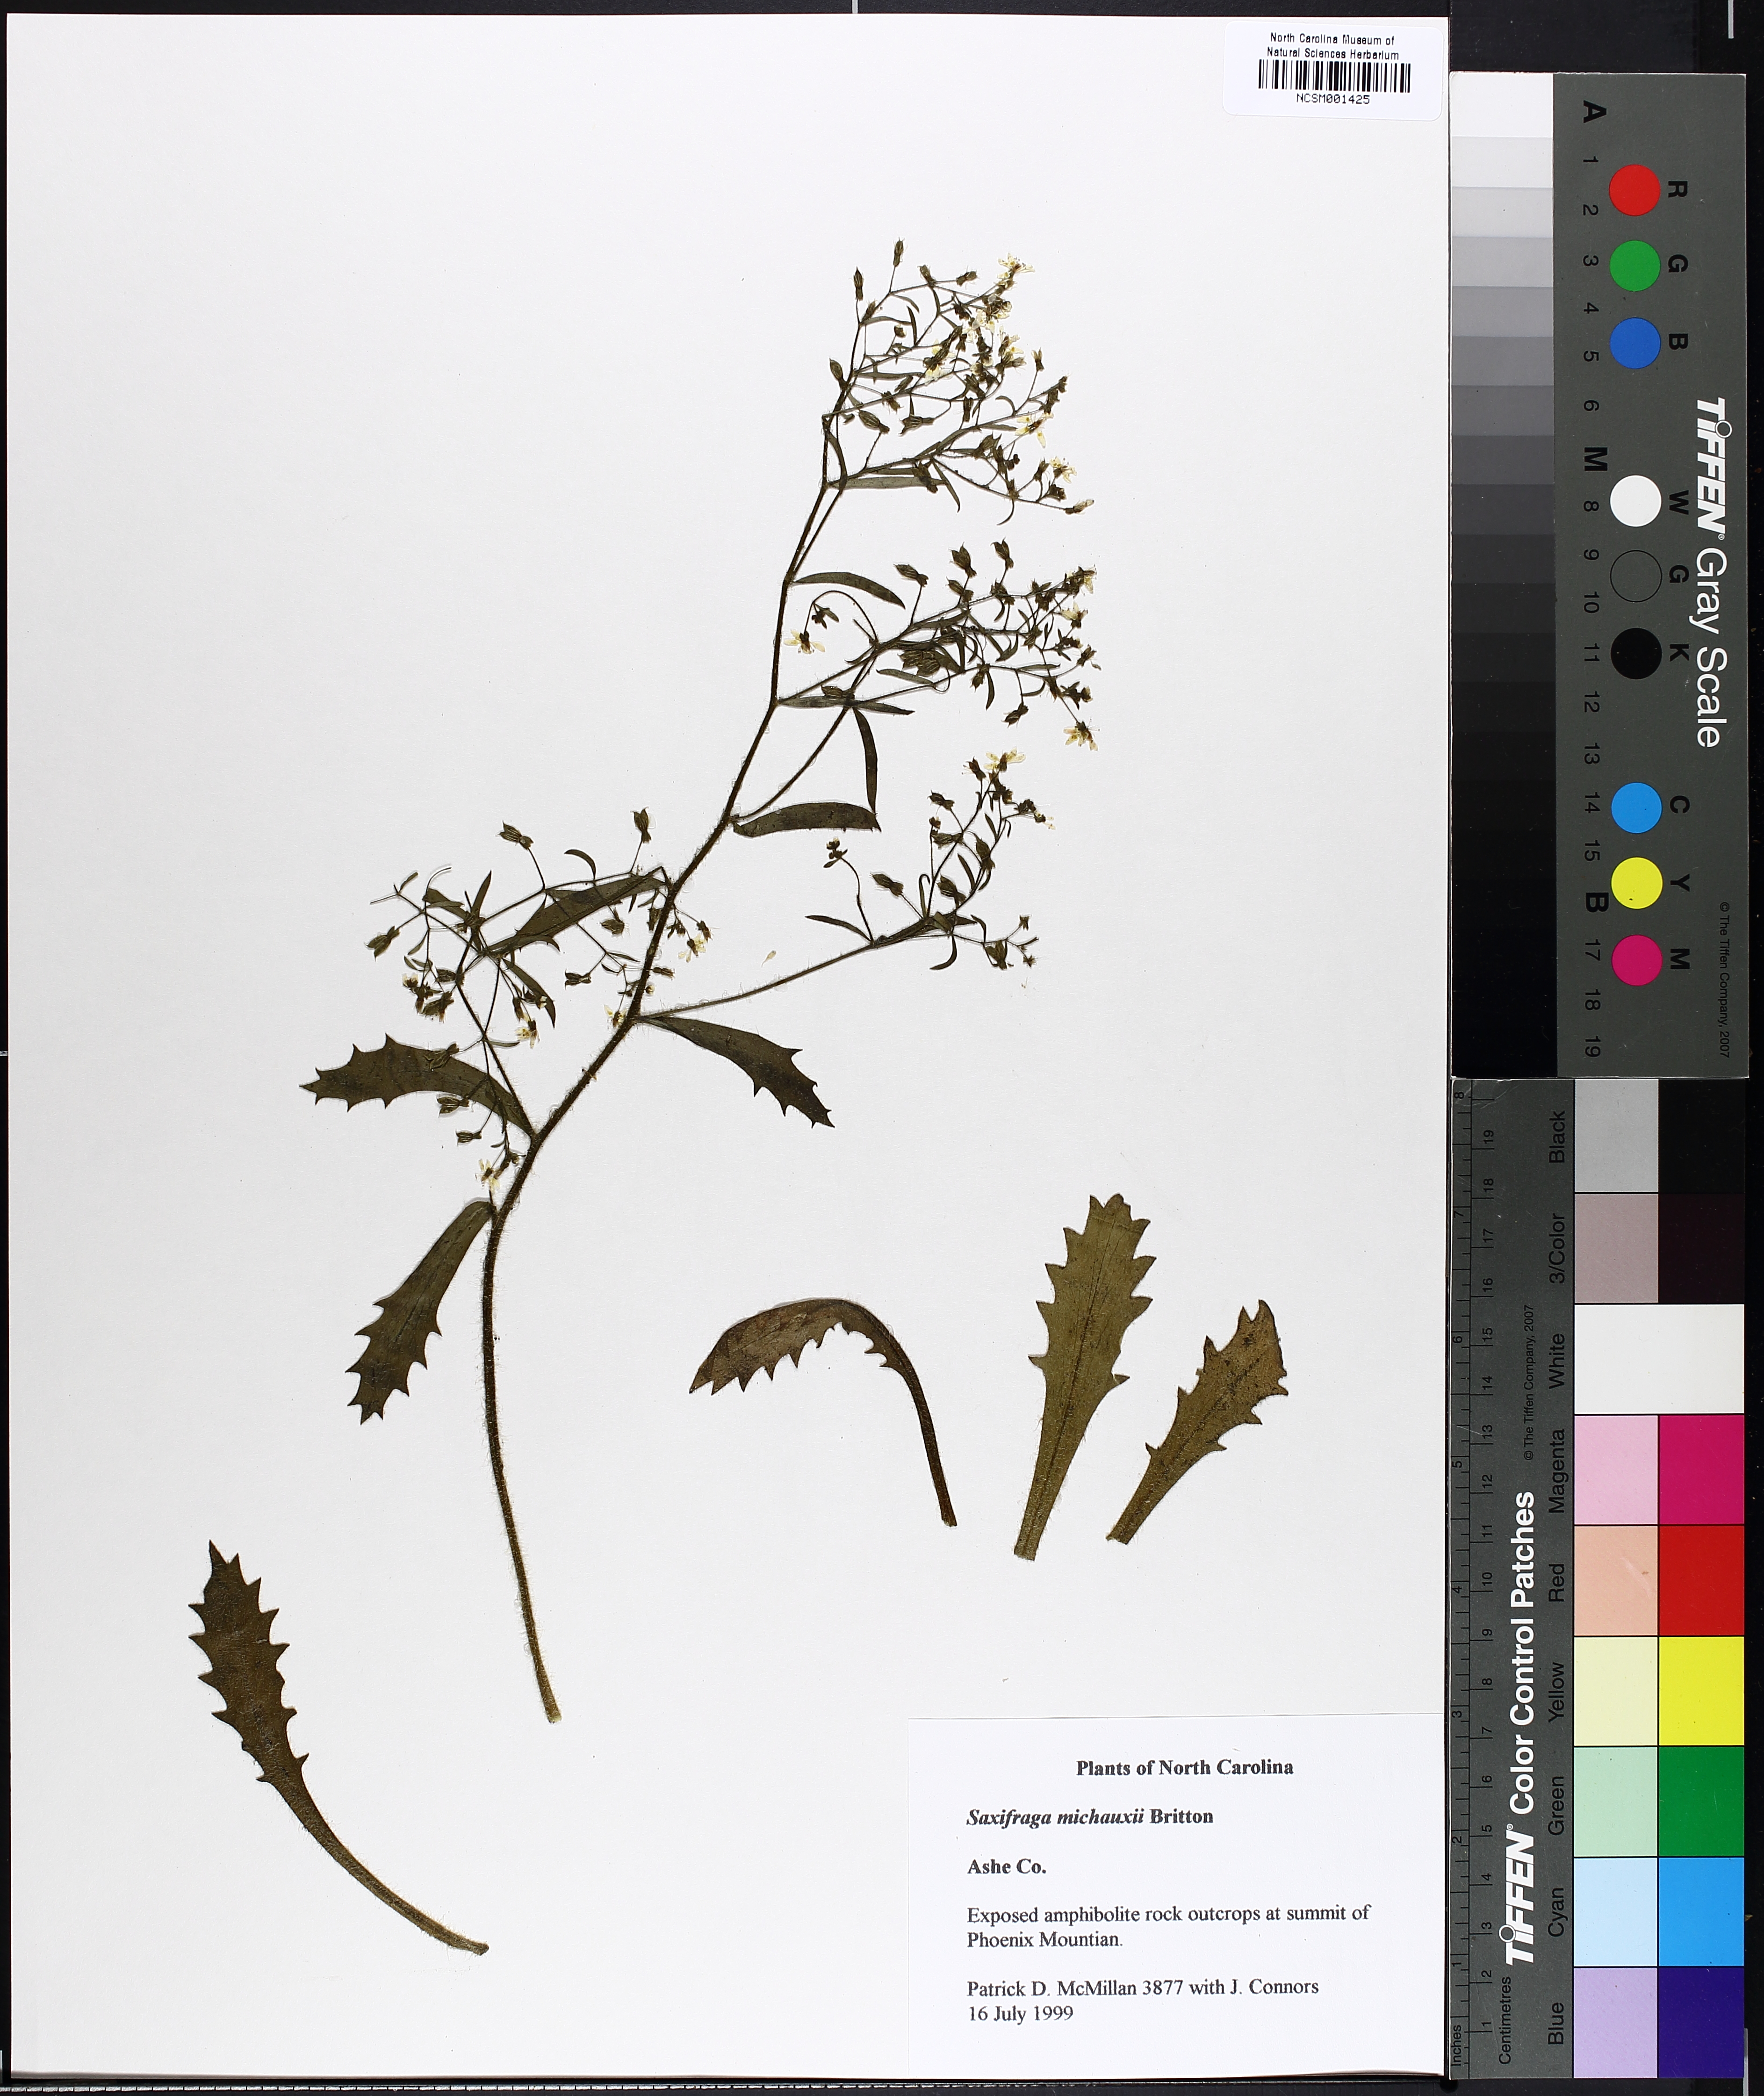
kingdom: Plantae
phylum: Tracheophyta
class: Magnoliopsida
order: Saxifragales
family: Saxifragaceae
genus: Micranthes
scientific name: Micranthes petiolaris
